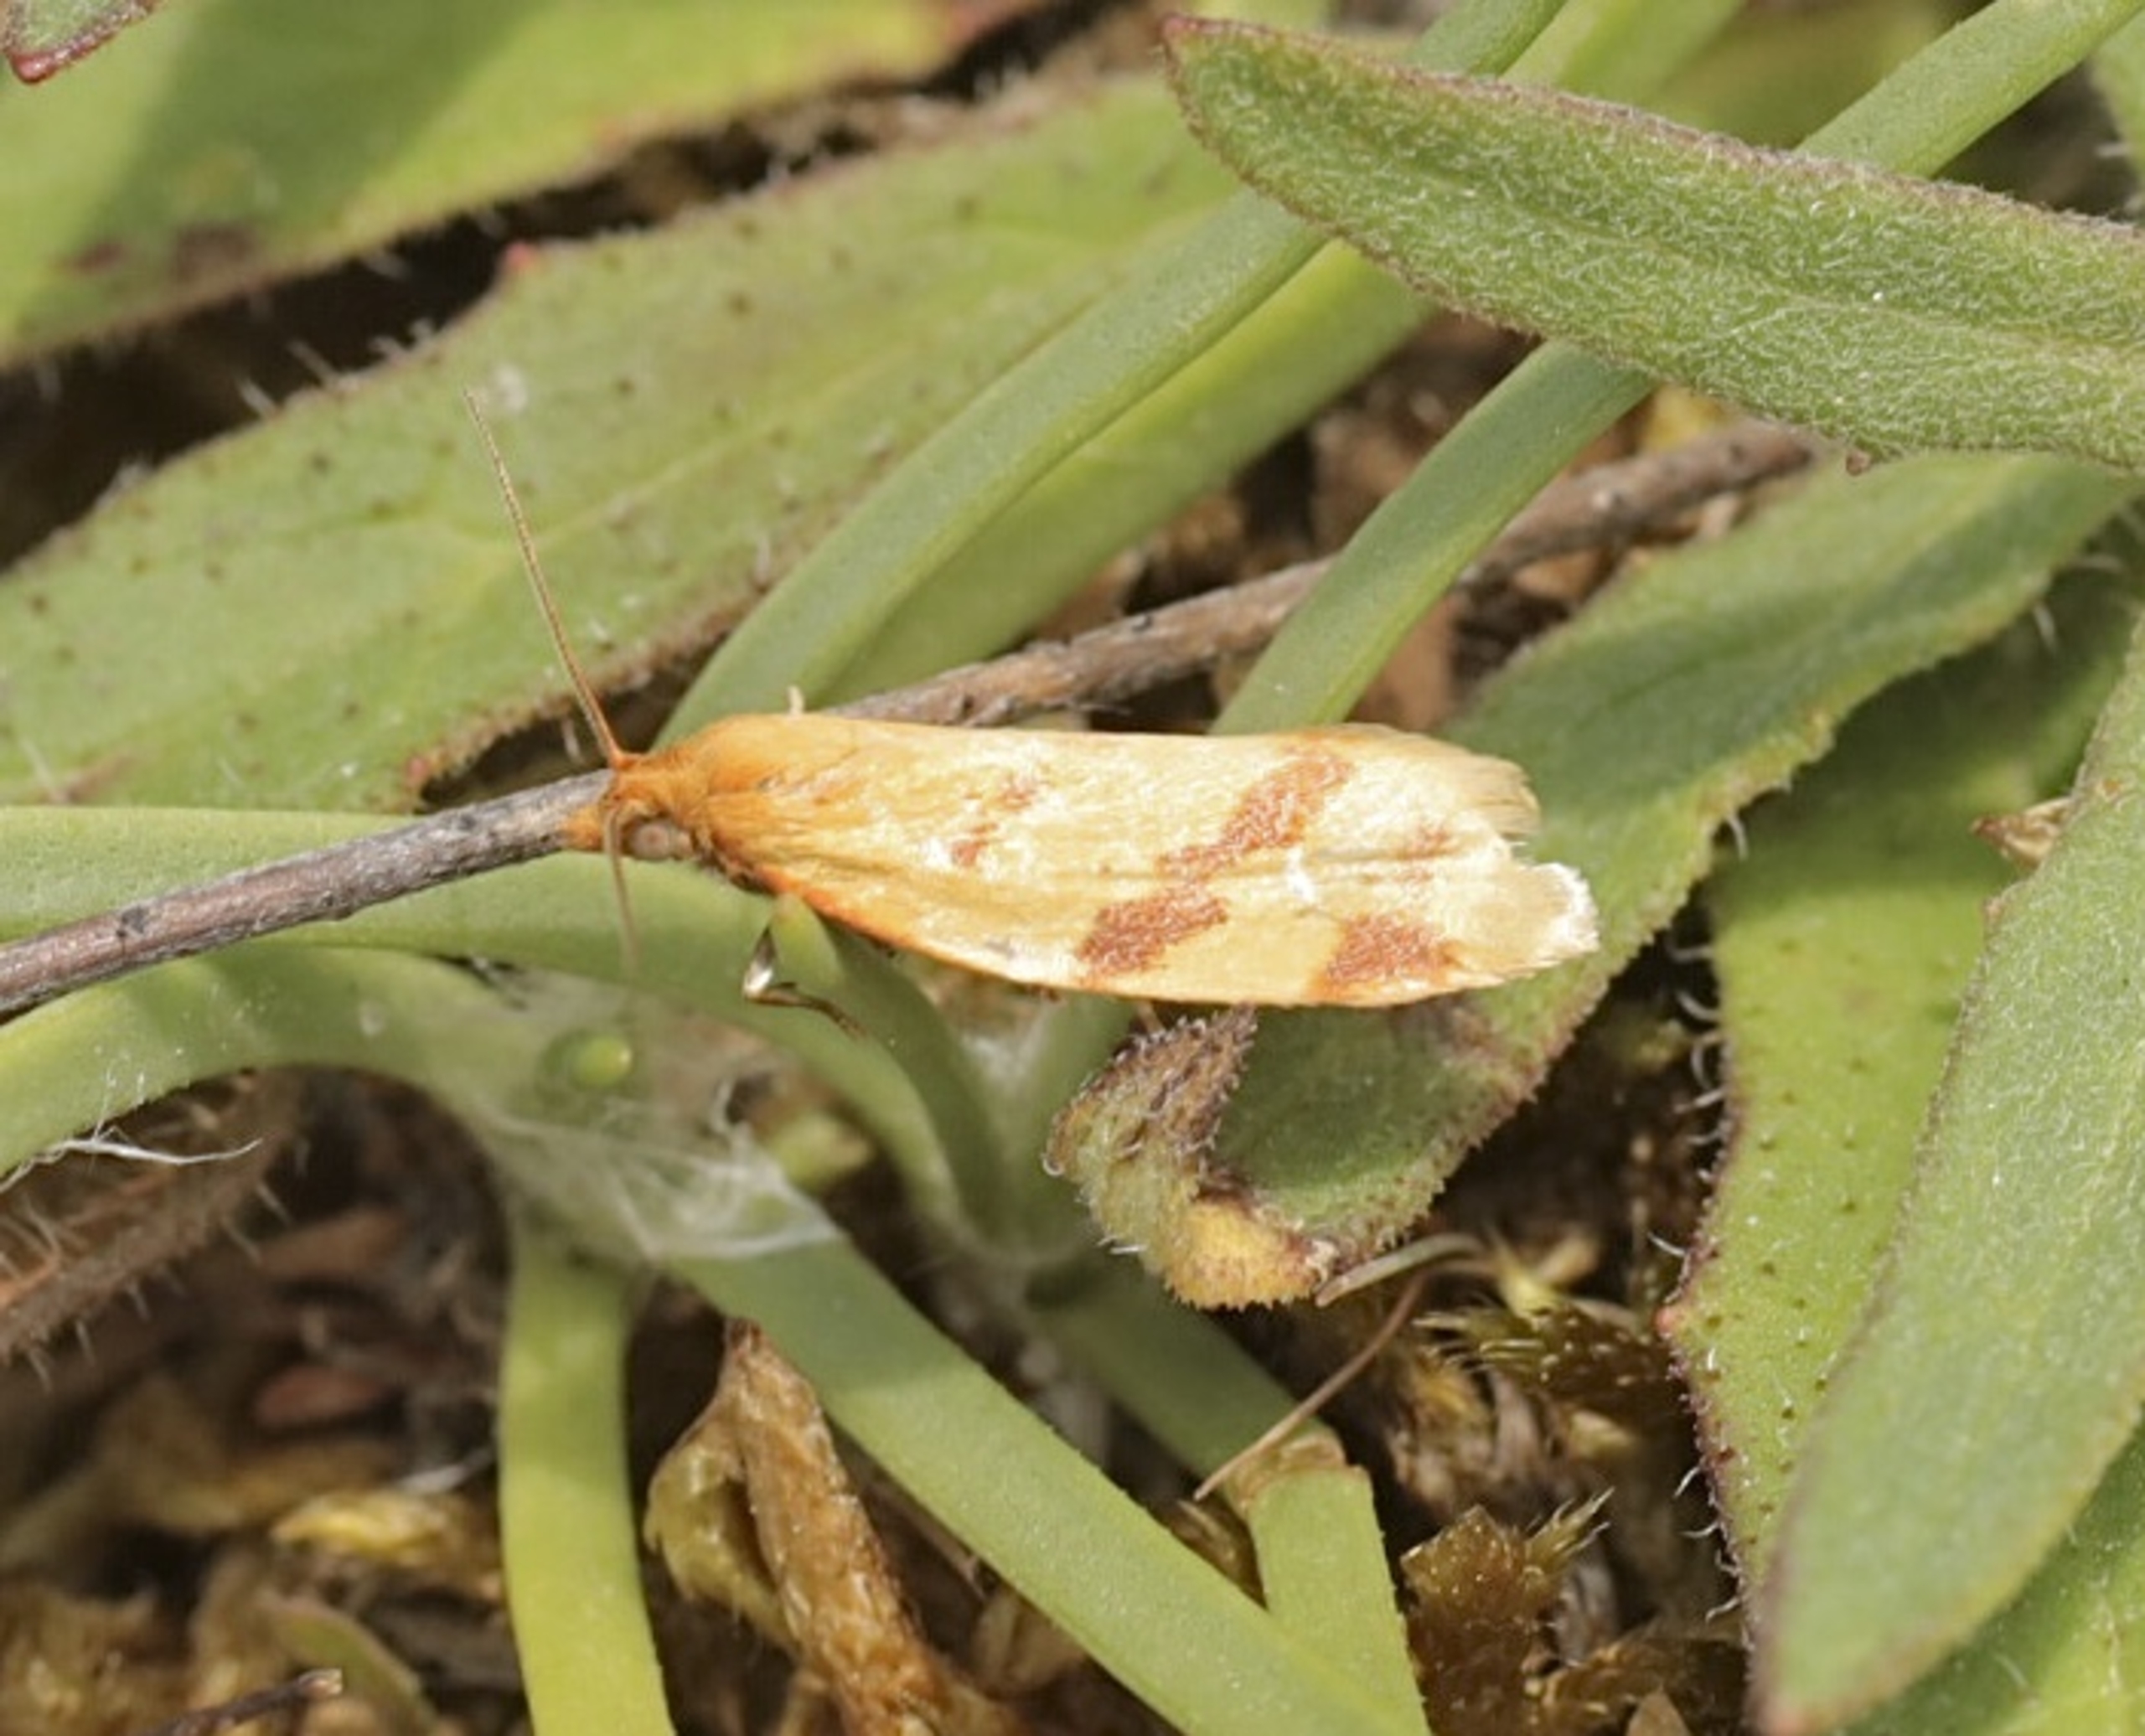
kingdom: Animalia
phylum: Arthropoda
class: Insecta
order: Lepidoptera
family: Tortricidae
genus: Clepsis
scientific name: Clepsis pallidana
